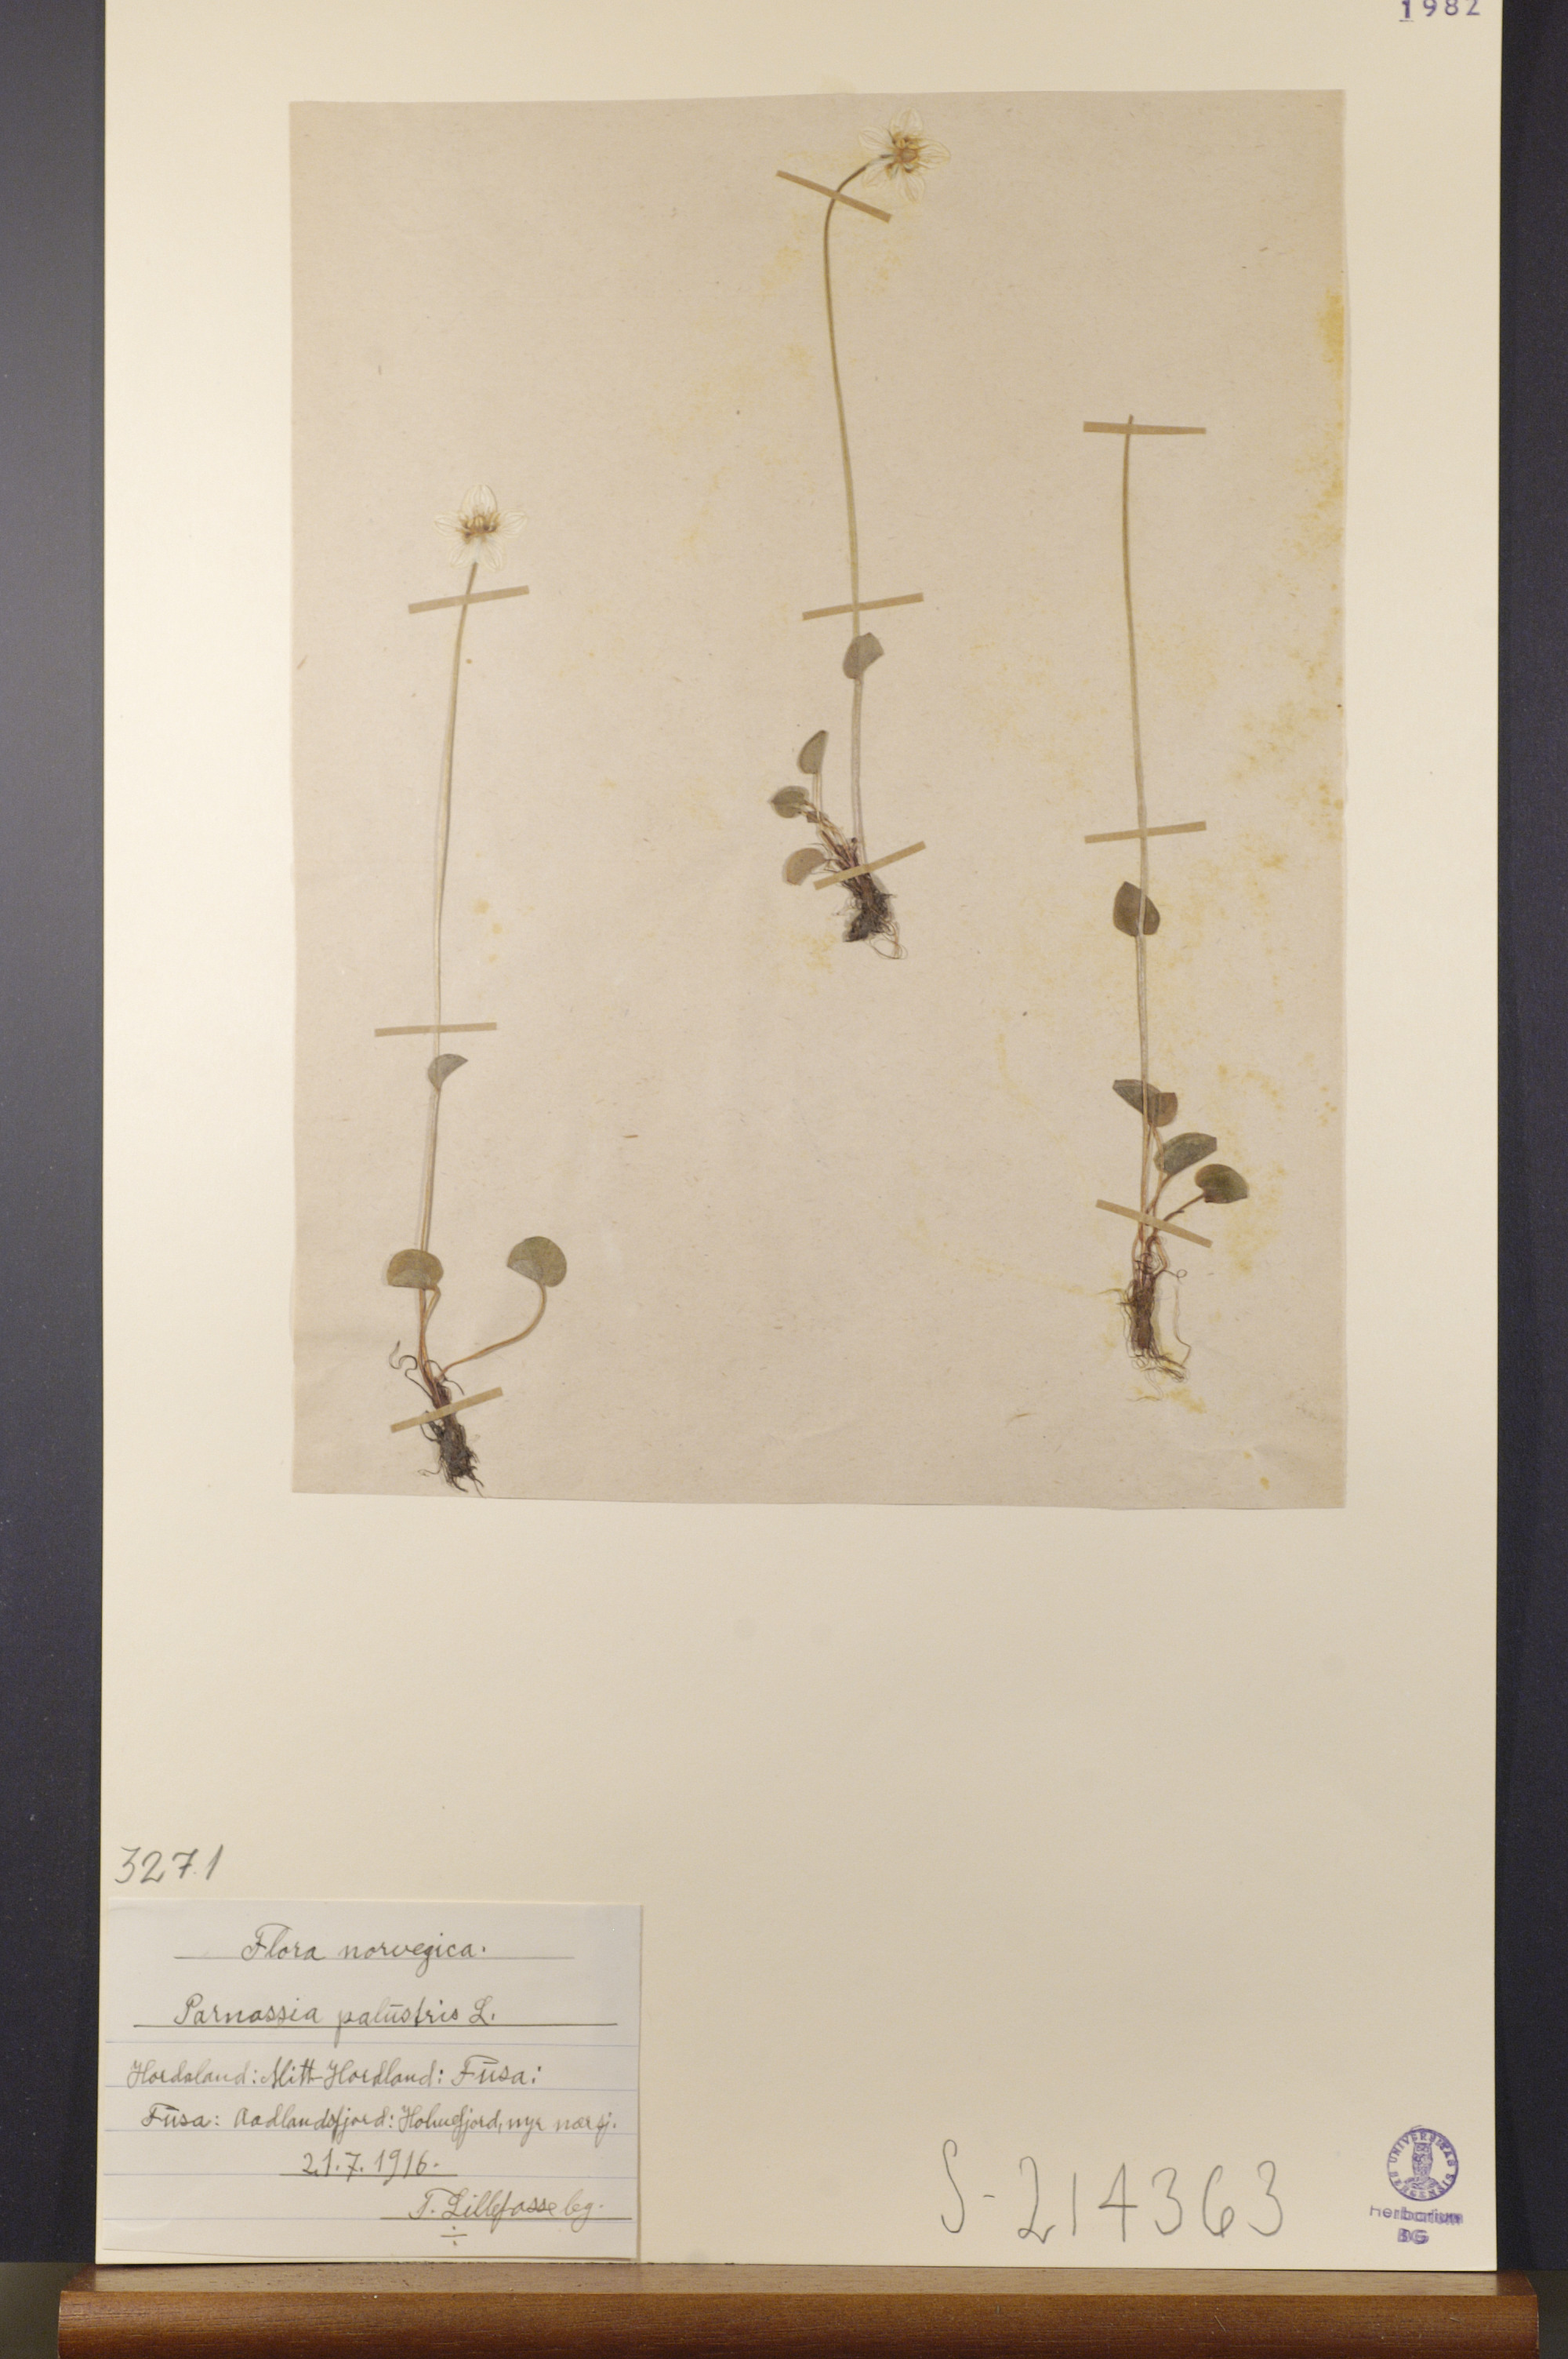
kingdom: Plantae
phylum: Tracheophyta
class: Magnoliopsida
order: Celastrales
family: Parnassiaceae
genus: Parnassia
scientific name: Parnassia palustris
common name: Grass-of-parnassus
